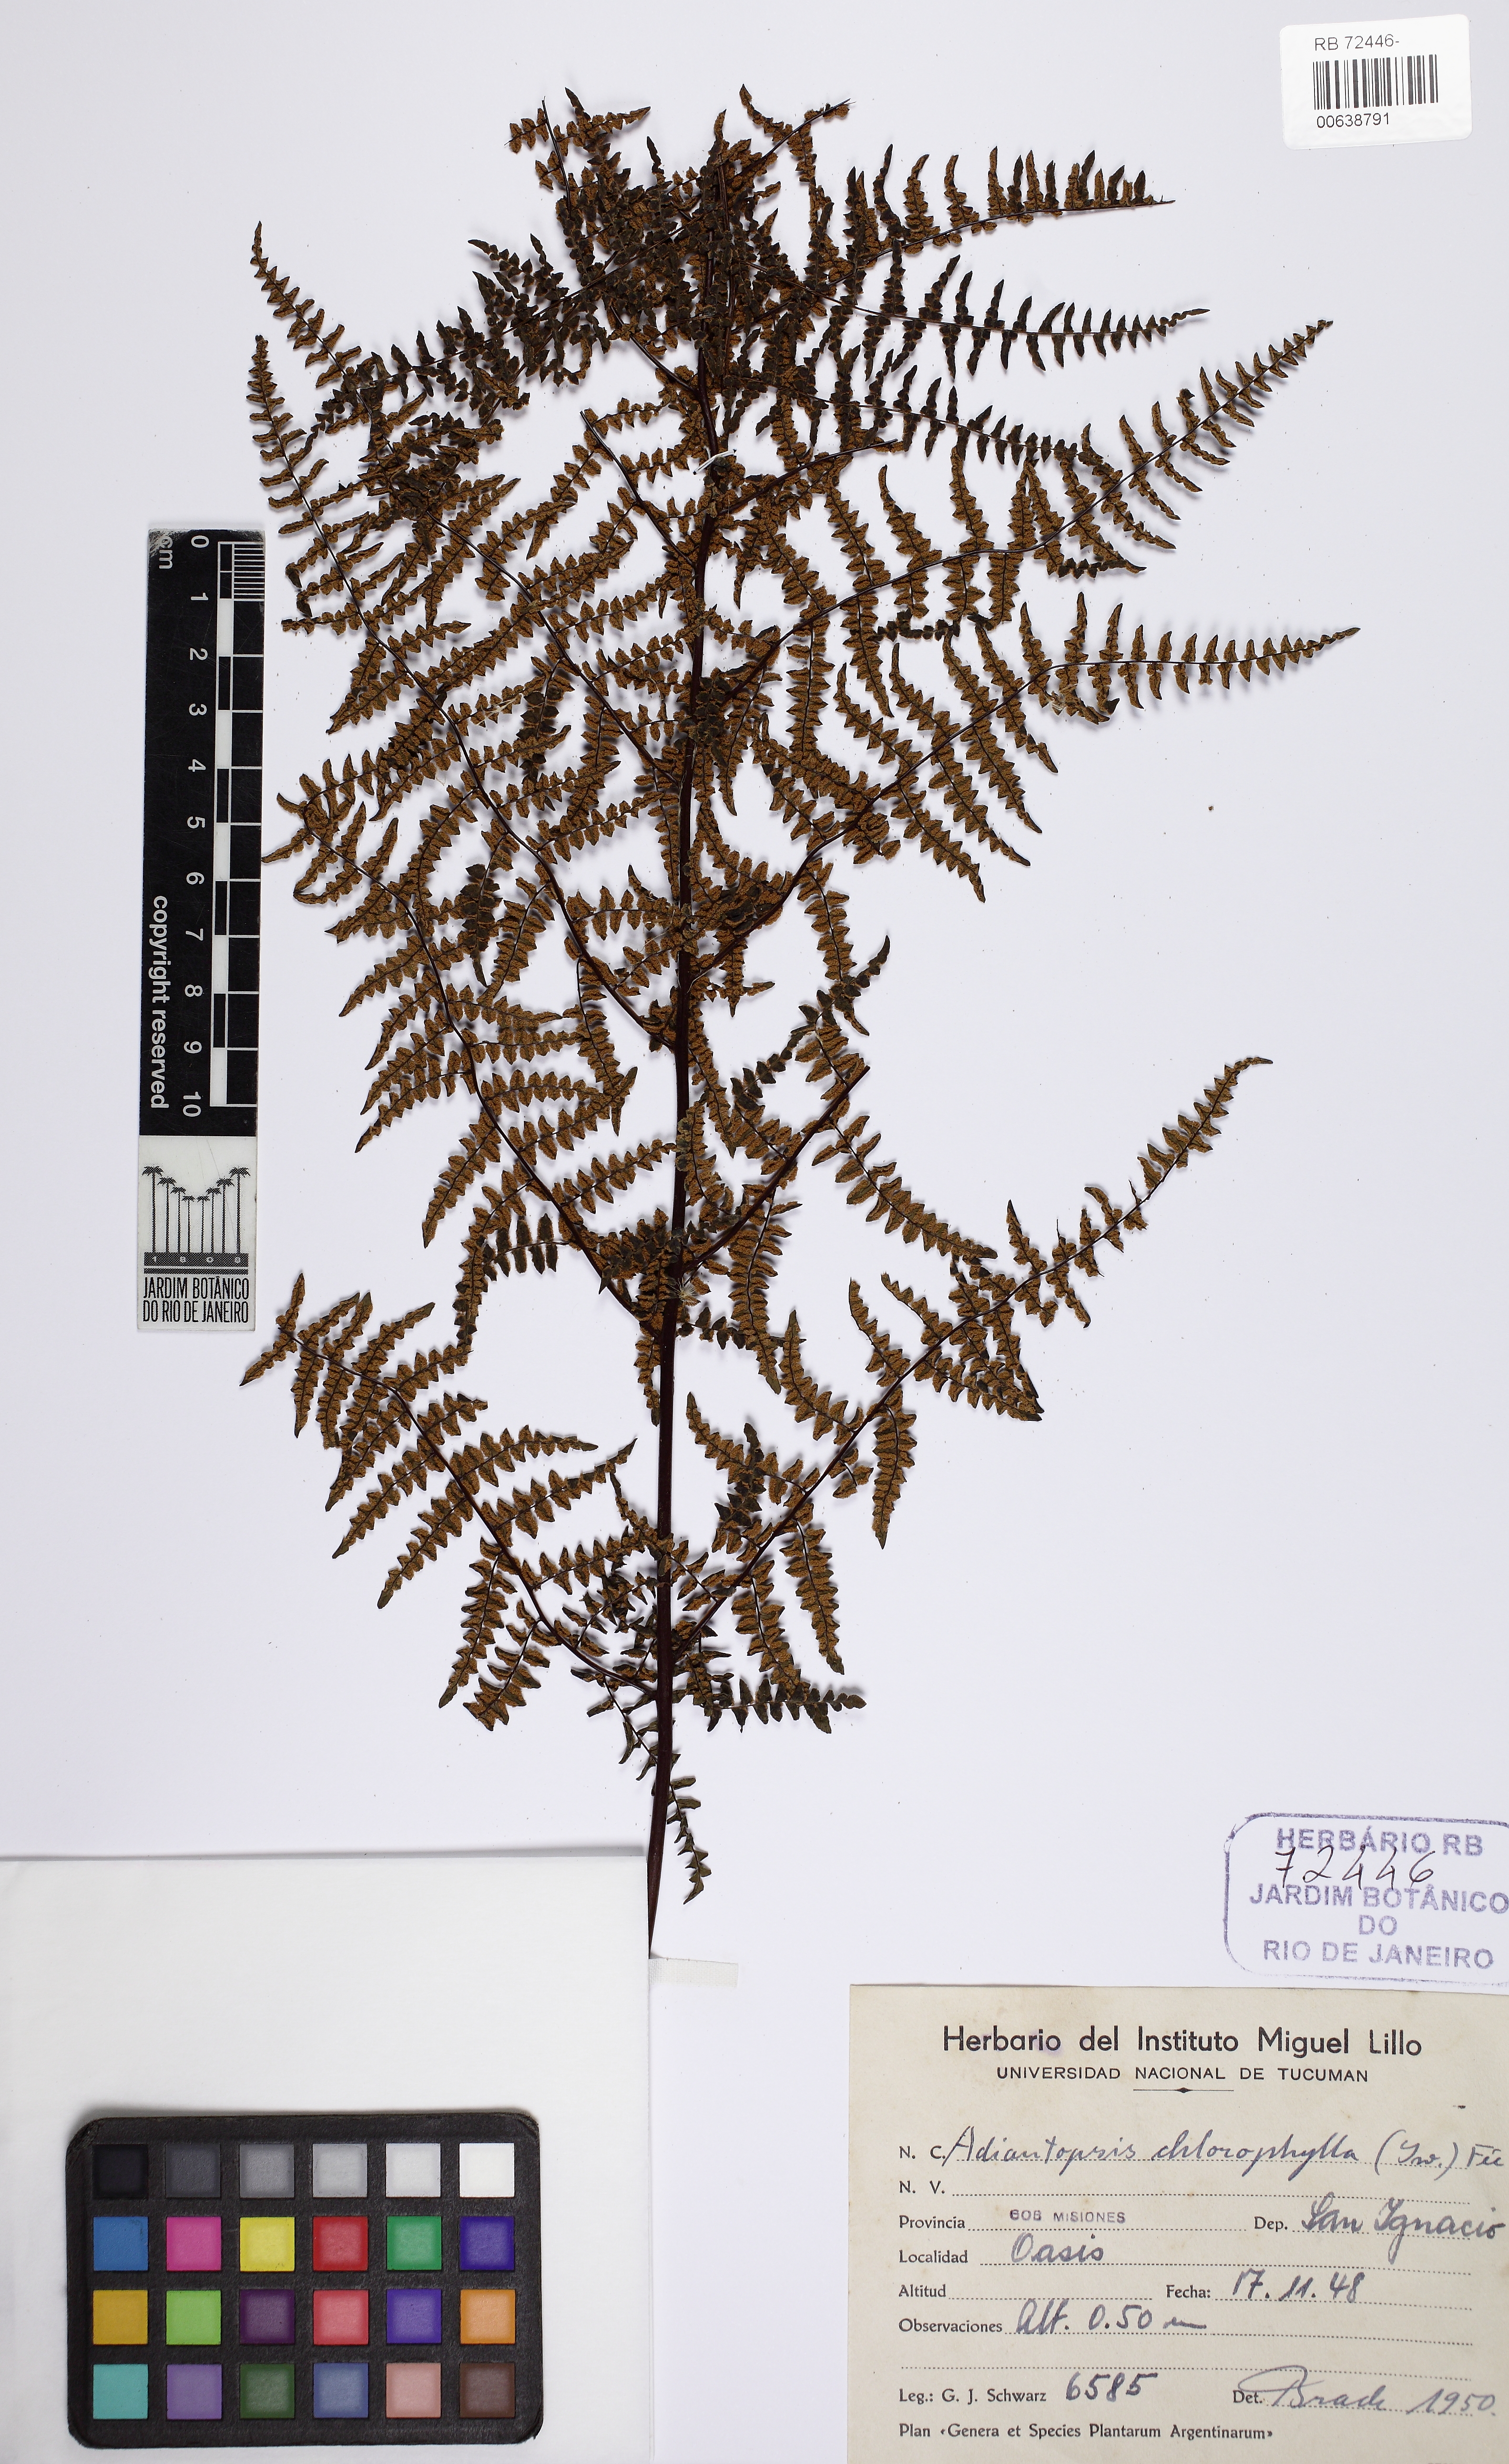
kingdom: Plantae
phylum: Tracheophyta
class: Polypodiopsida
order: Polypodiales
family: Pteridaceae
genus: Adiantopsis
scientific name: Adiantopsis chlorophylla
